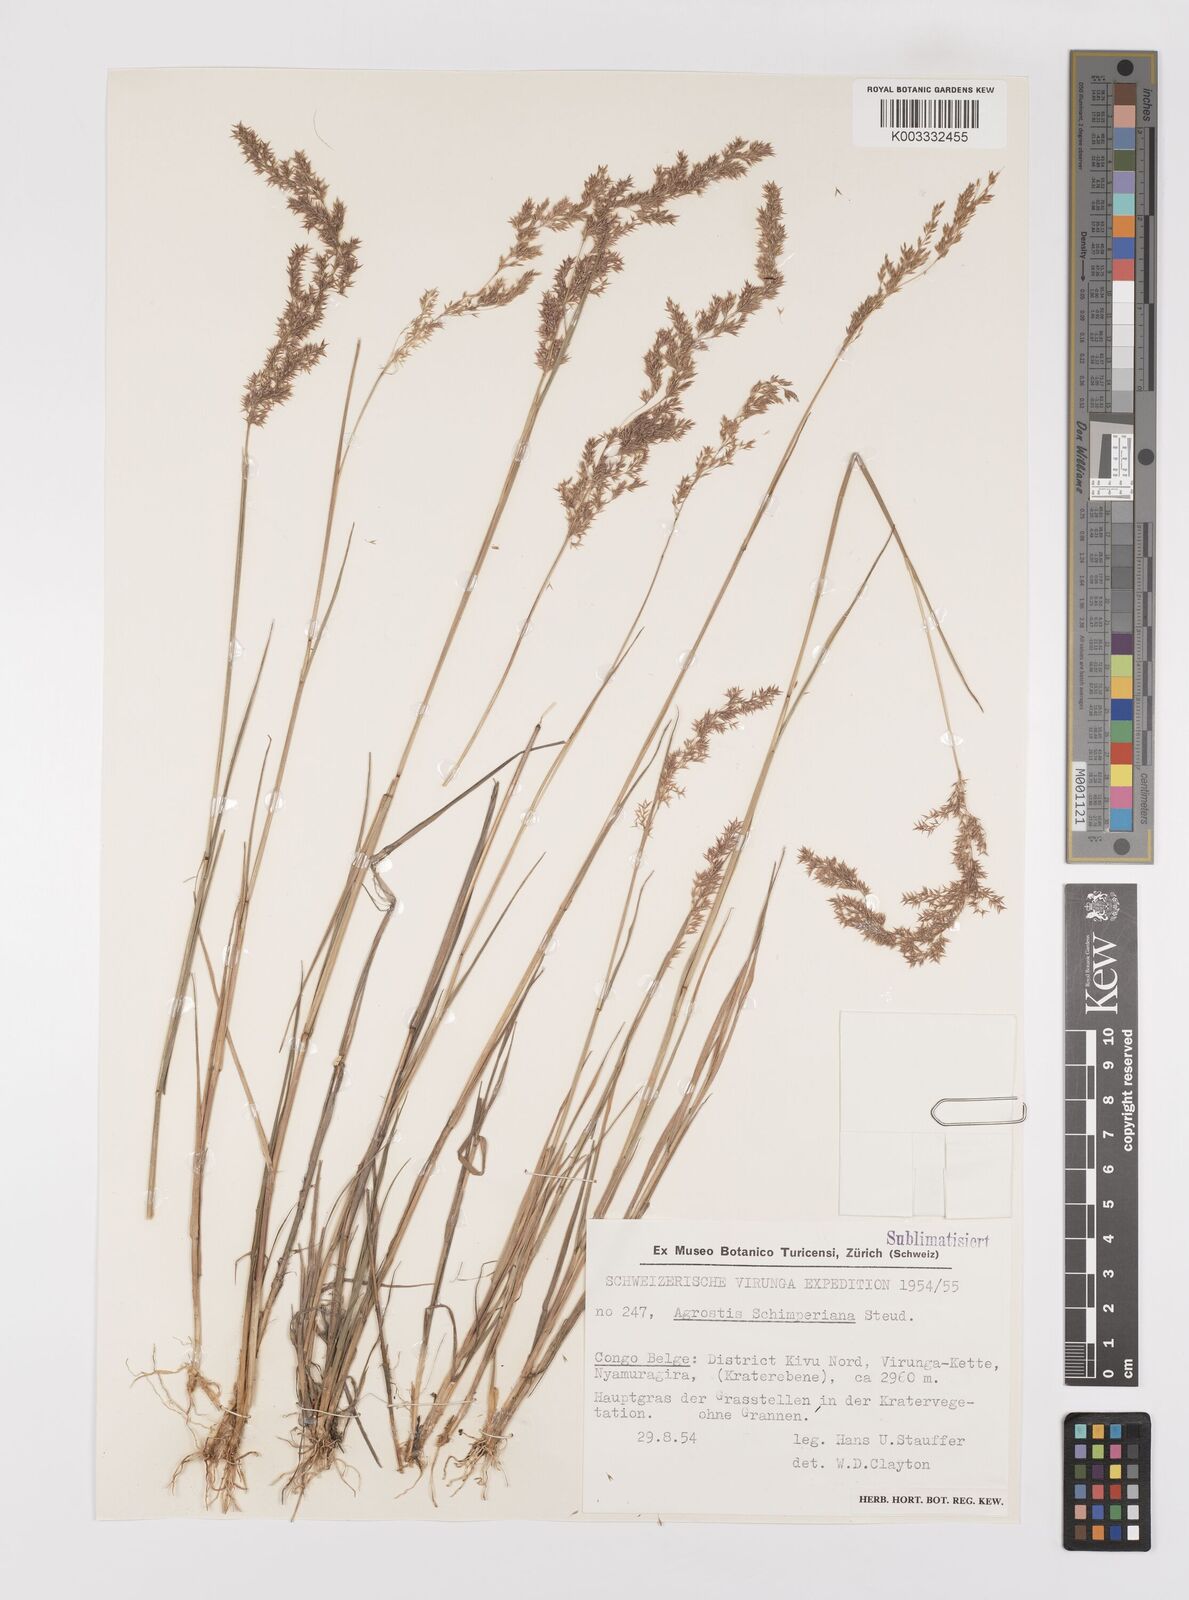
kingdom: Plantae
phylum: Tracheophyta
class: Liliopsida
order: Poales
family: Poaceae
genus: Polypogon
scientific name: Polypogon schimperianus
